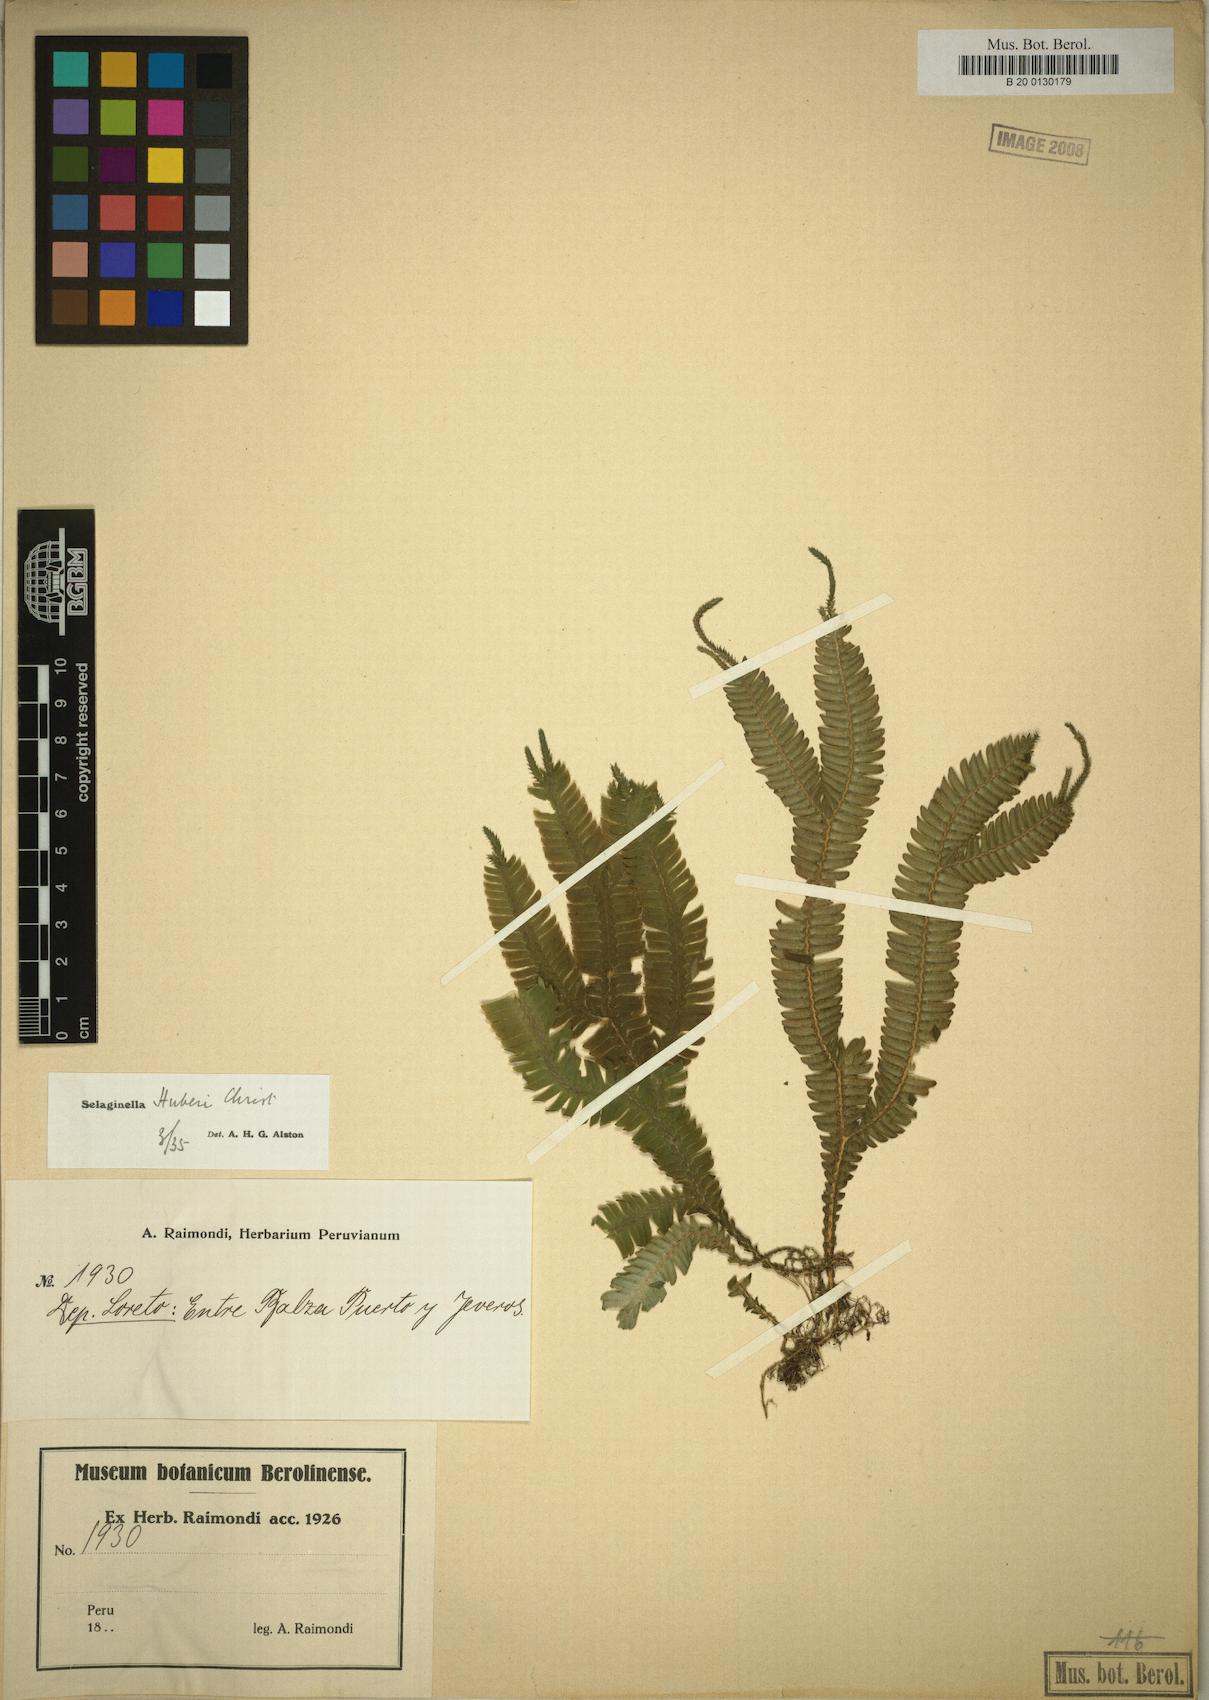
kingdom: Plantae
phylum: Tracheophyta
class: Lycopodiopsida
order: Selaginellales
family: Selaginellaceae
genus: Selaginella
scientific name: Selaginella speciosa
